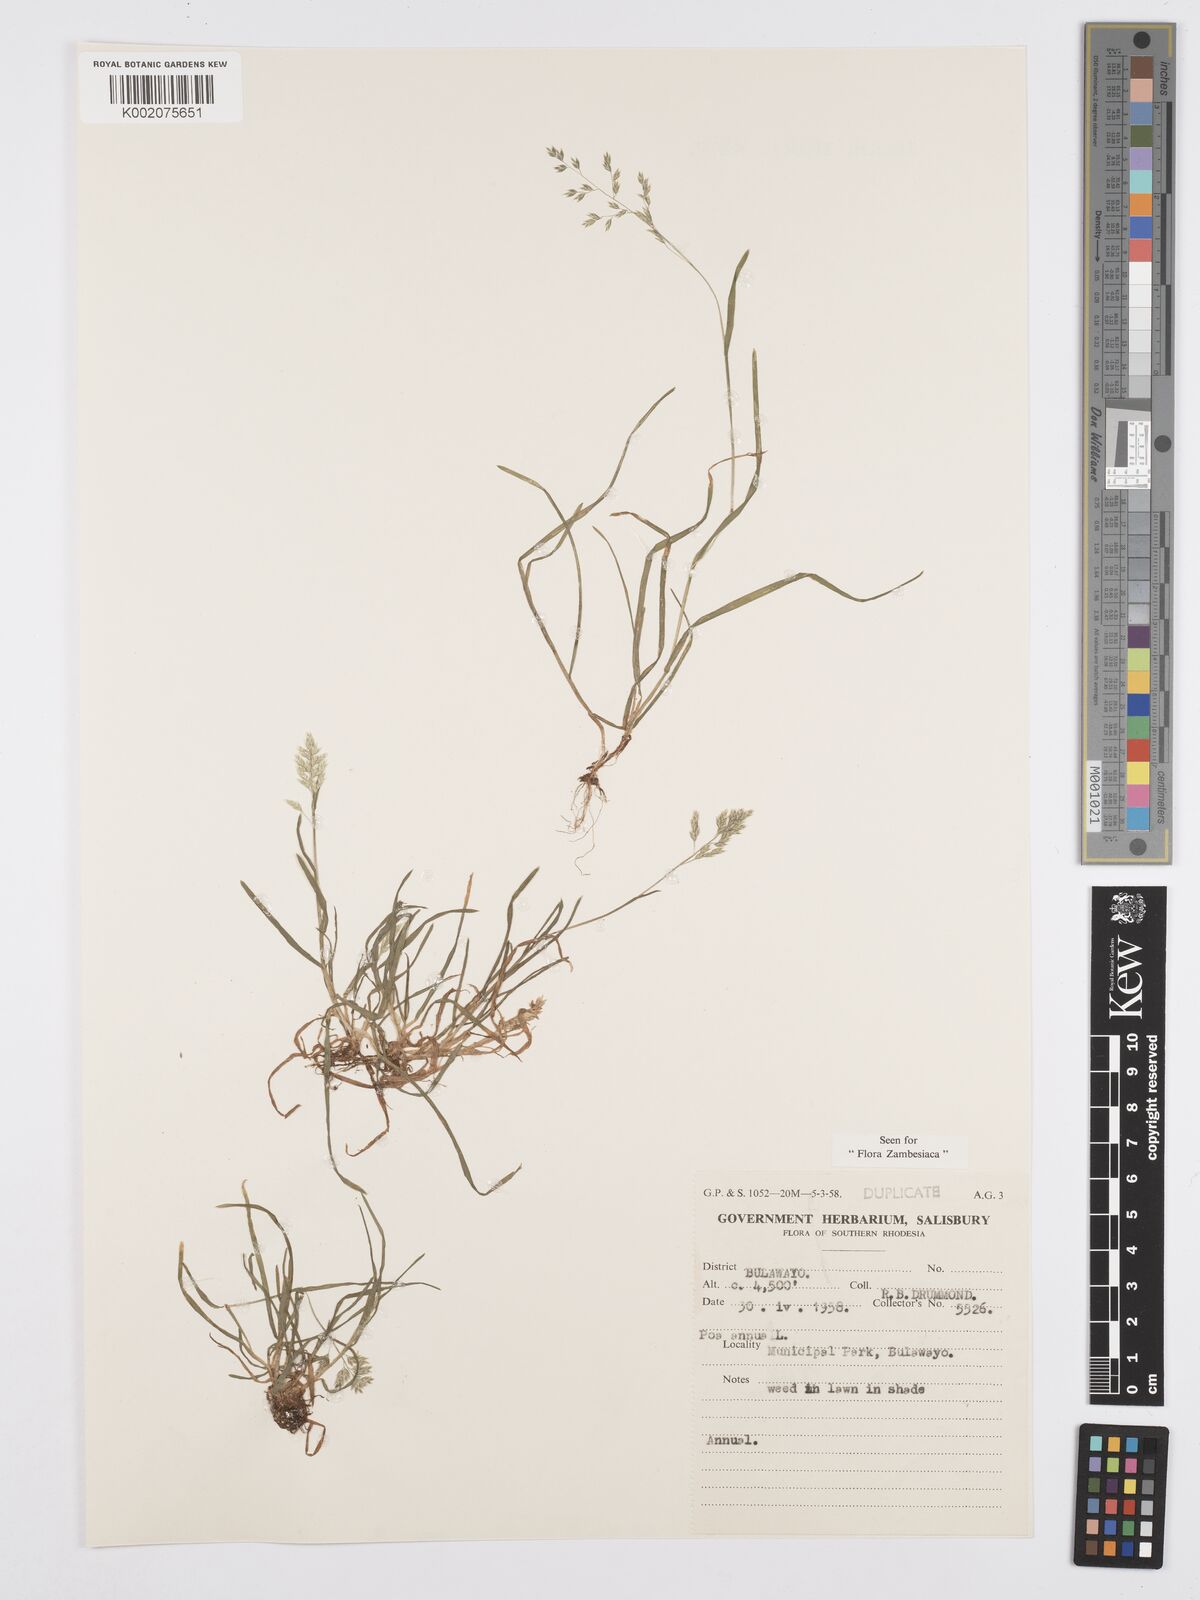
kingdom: Plantae
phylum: Tracheophyta
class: Liliopsida
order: Poales
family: Poaceae
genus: Poa
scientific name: Poa annua
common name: Annual bluegrass
